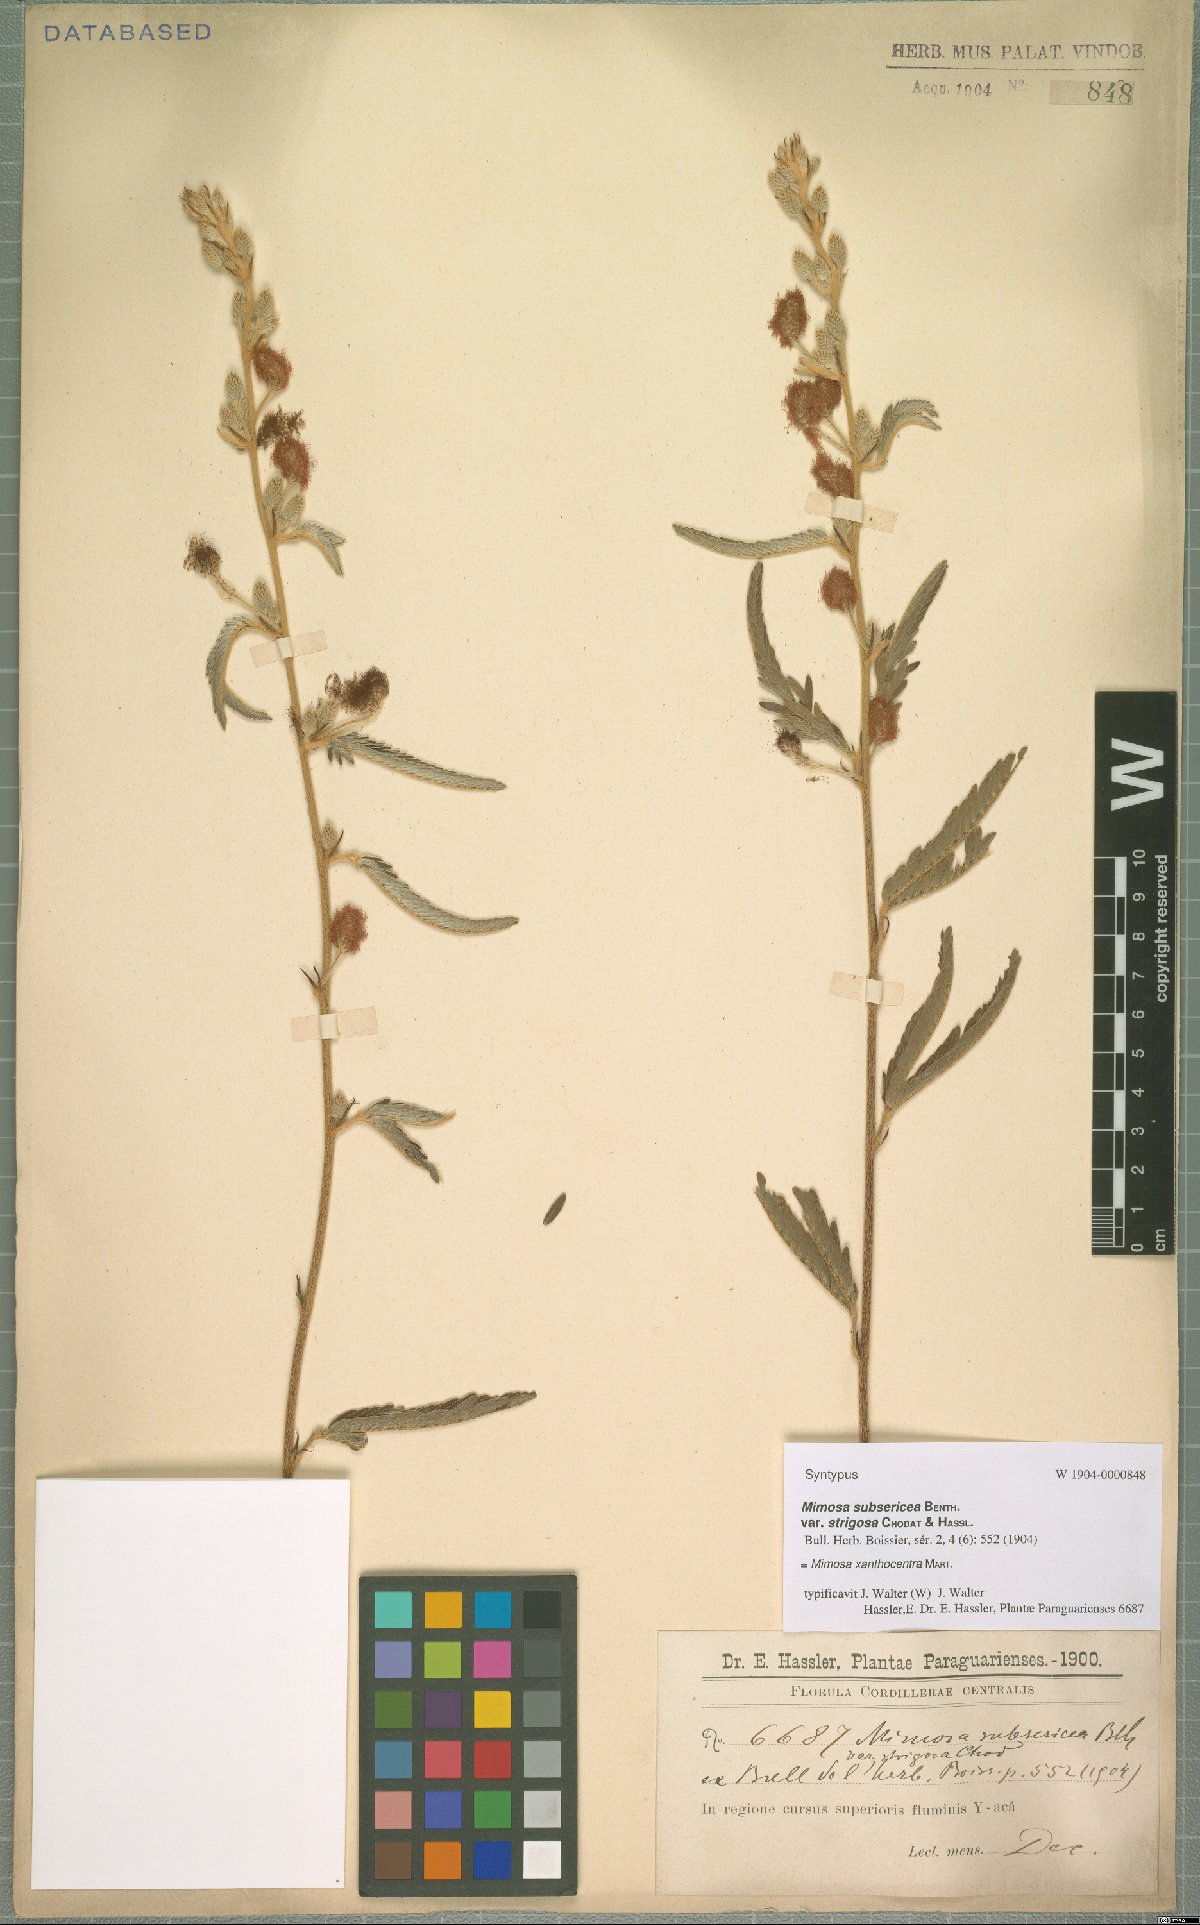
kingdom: Plantae
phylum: Tracheophyta
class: Magnoliopsida
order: Fabales
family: Fabaceae
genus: Mimosa
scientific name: Mimosa xanthocentra
